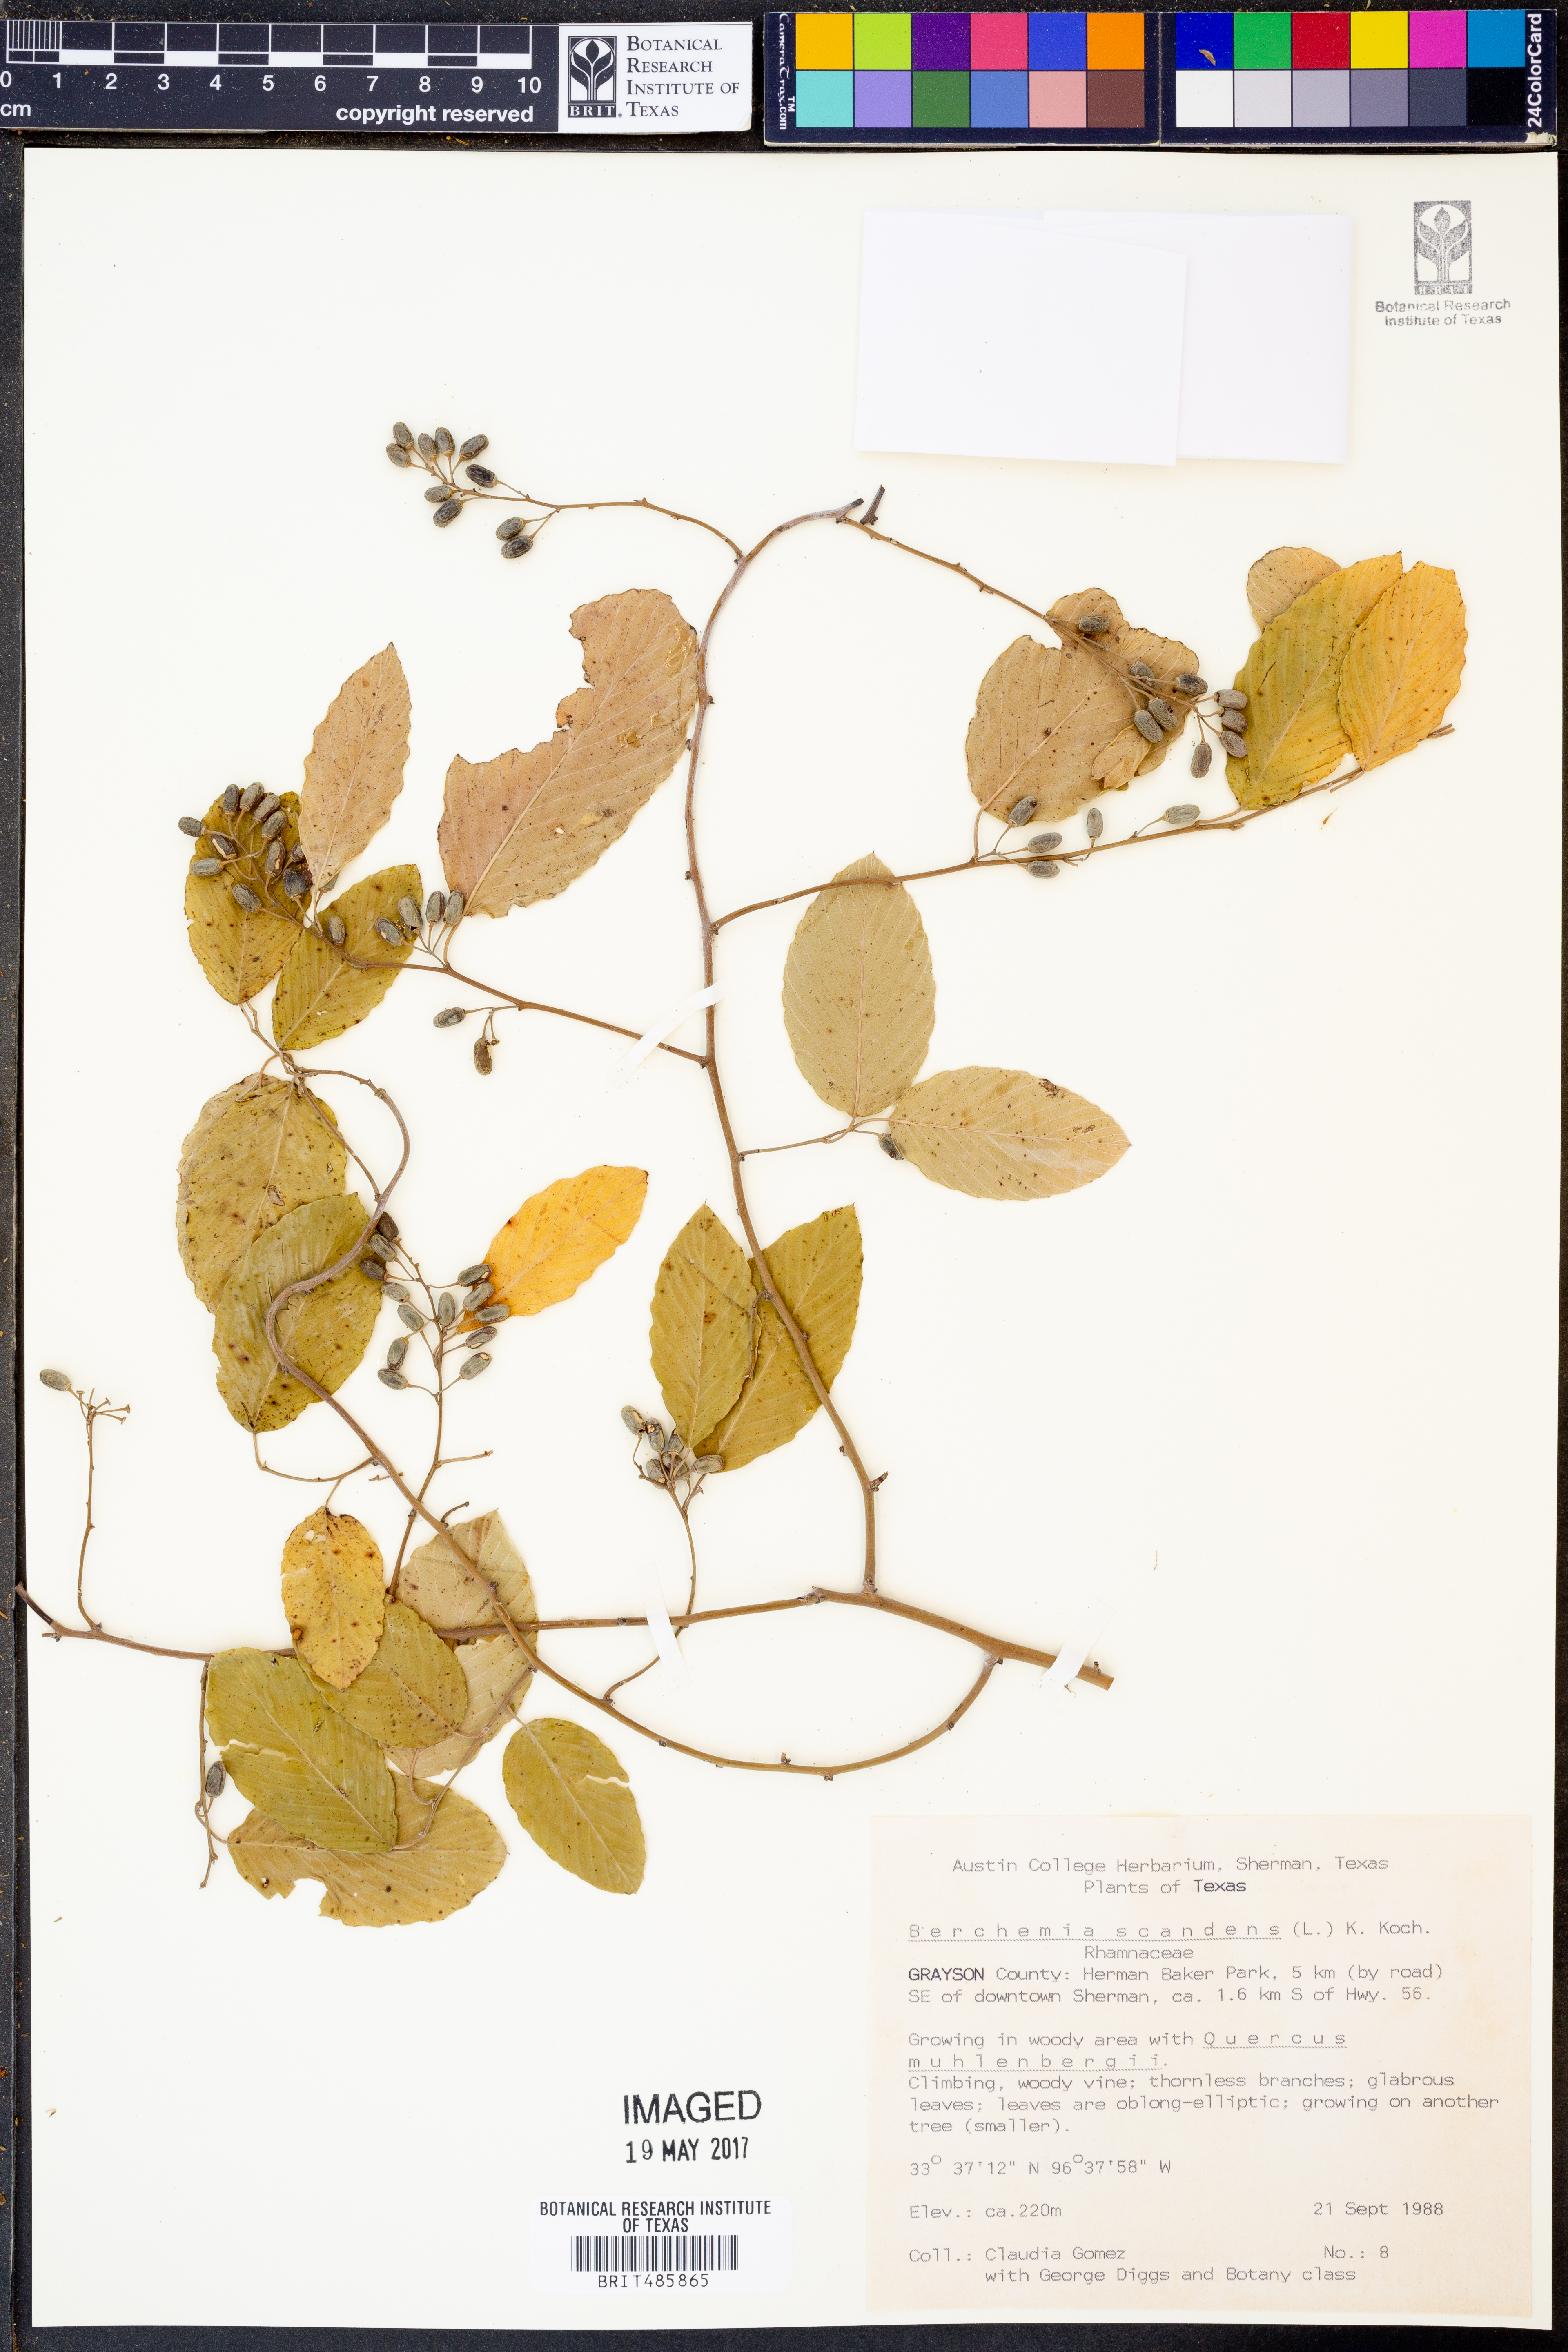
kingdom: Plantae
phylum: Tracheophyta
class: Magnoliopsida
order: Rosales
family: Rhamnaceae
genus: Berchemia
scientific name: Berchemia scandens
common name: Supplejack
